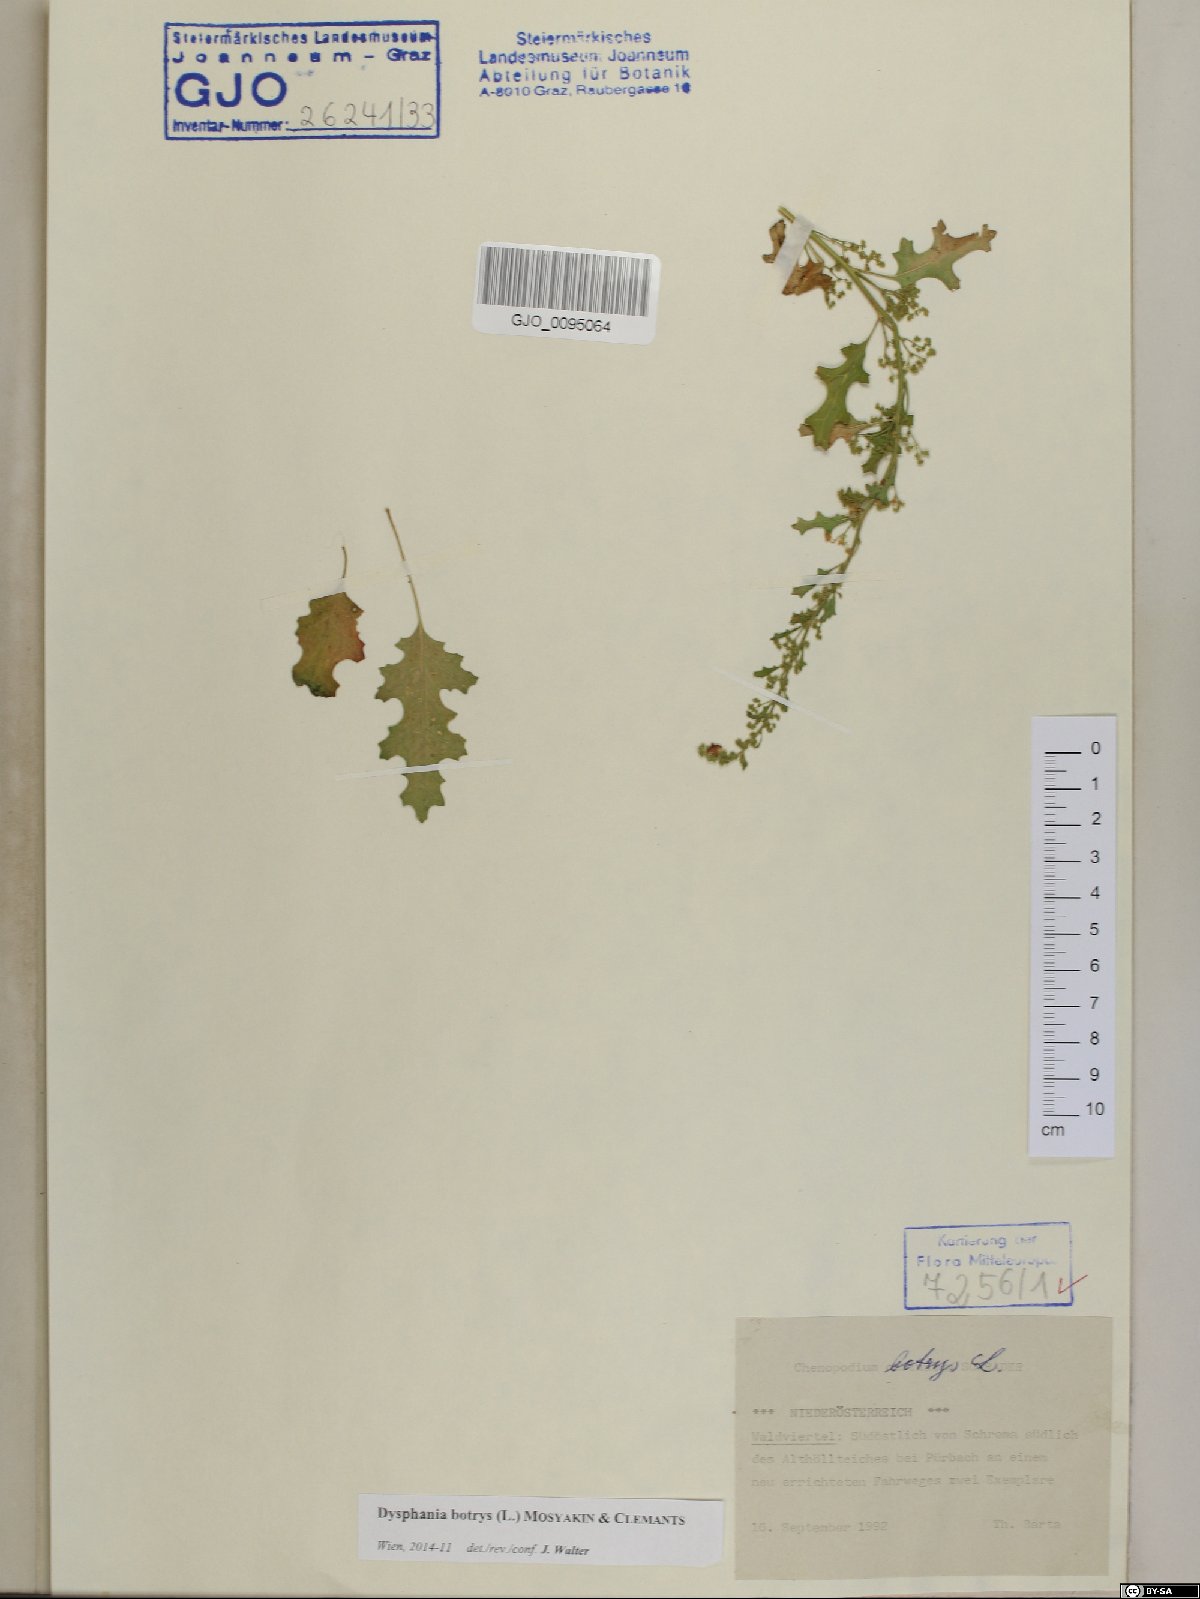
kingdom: Plantae
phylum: Tracheophyta
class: Magnoliopsida
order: Caryophyllales
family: Amaranthaceae
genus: Dysphania
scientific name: Dysphania botrys
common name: Feather-geranium
